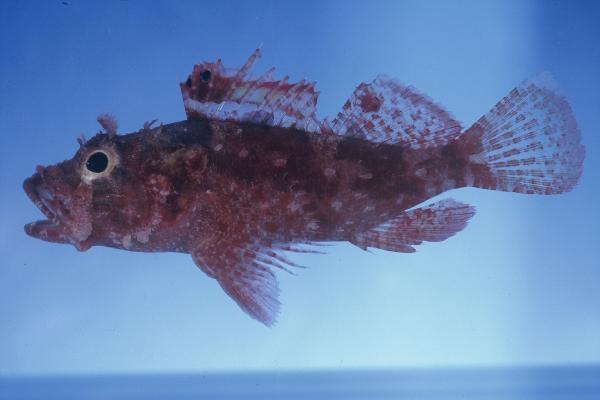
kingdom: Animalia
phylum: Chordata
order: Scorpaeniformes
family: Scorpaenidae
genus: Iracundus
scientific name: Iracundus signifer
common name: Decoy scorpionfish
